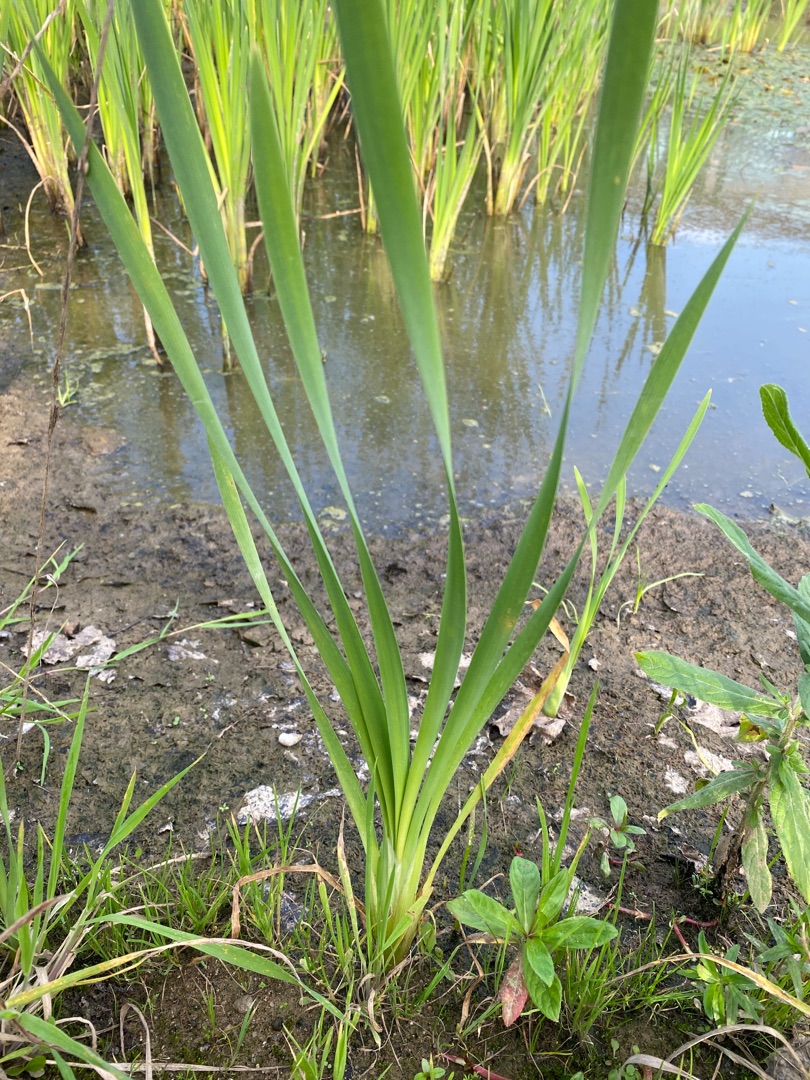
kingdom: Plantae
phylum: Tracheophyta
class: Liliopsida
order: Poales
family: Typhaceae
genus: Typha
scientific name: Typha latifolia
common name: Bredbladet dunhammer
